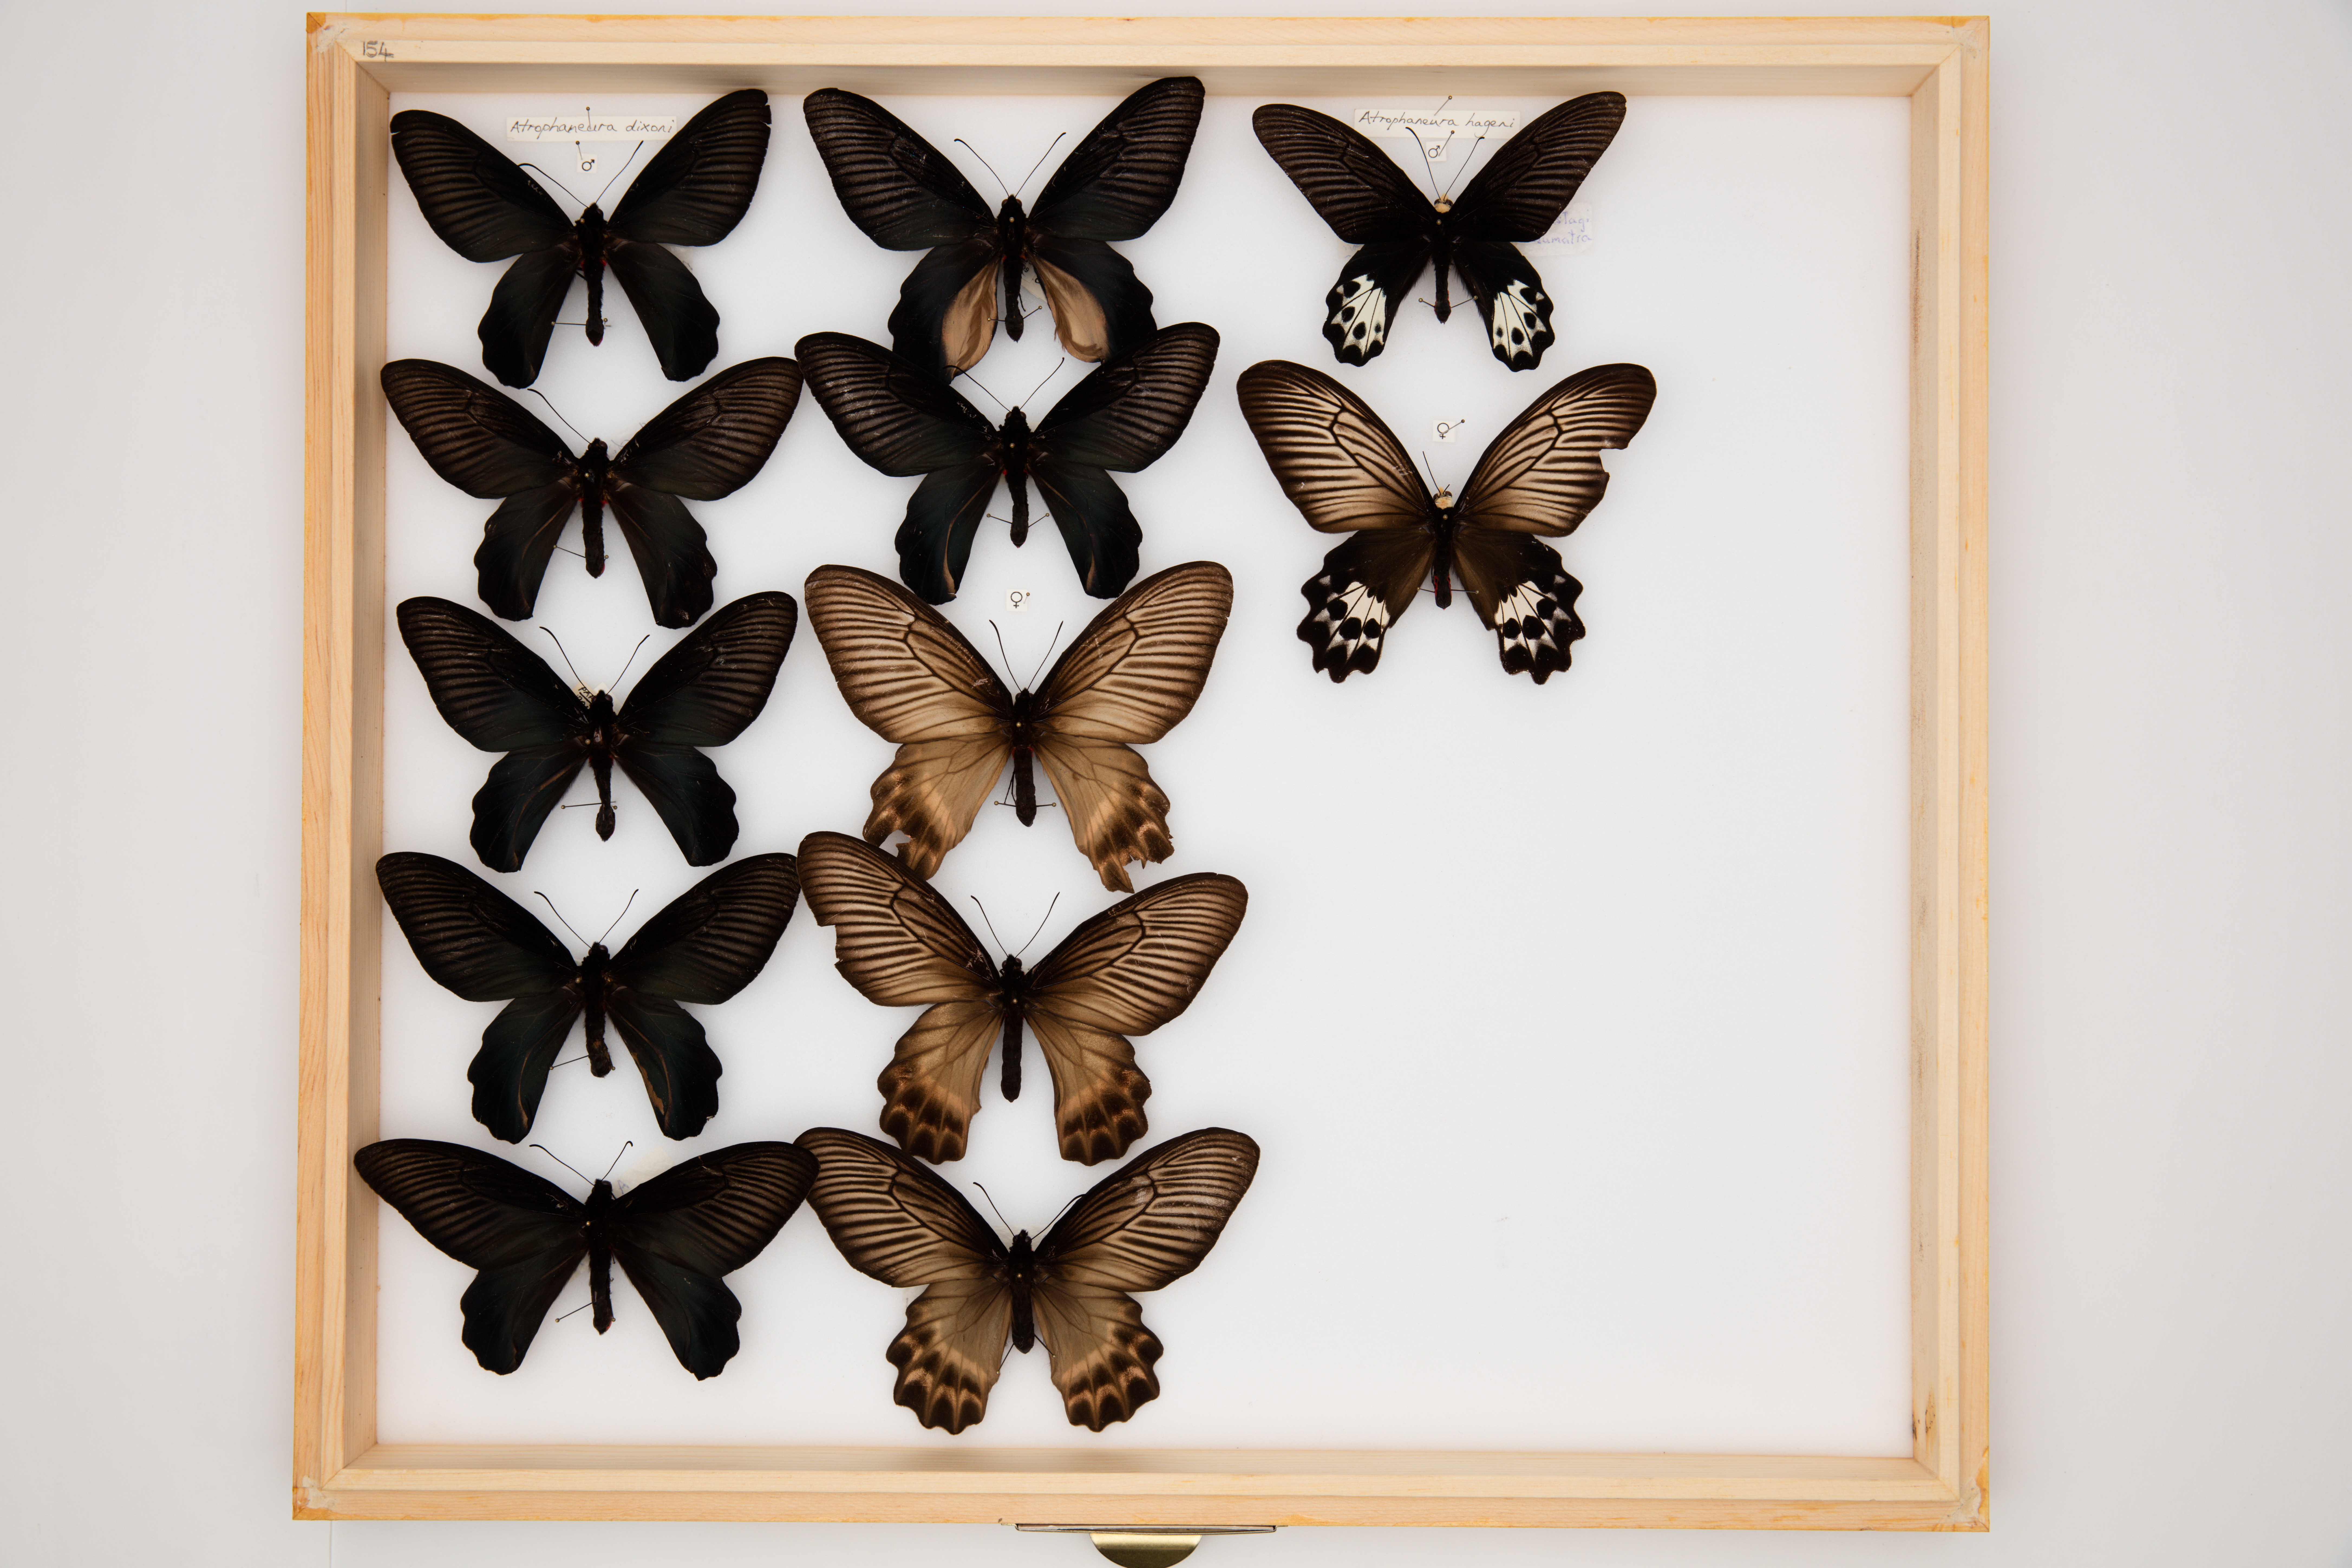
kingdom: Animalia
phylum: Arthropoda
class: Insecta
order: Lepidoptera
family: Papilionidae
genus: Atrophaneura
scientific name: Atrophaneura dixoni
